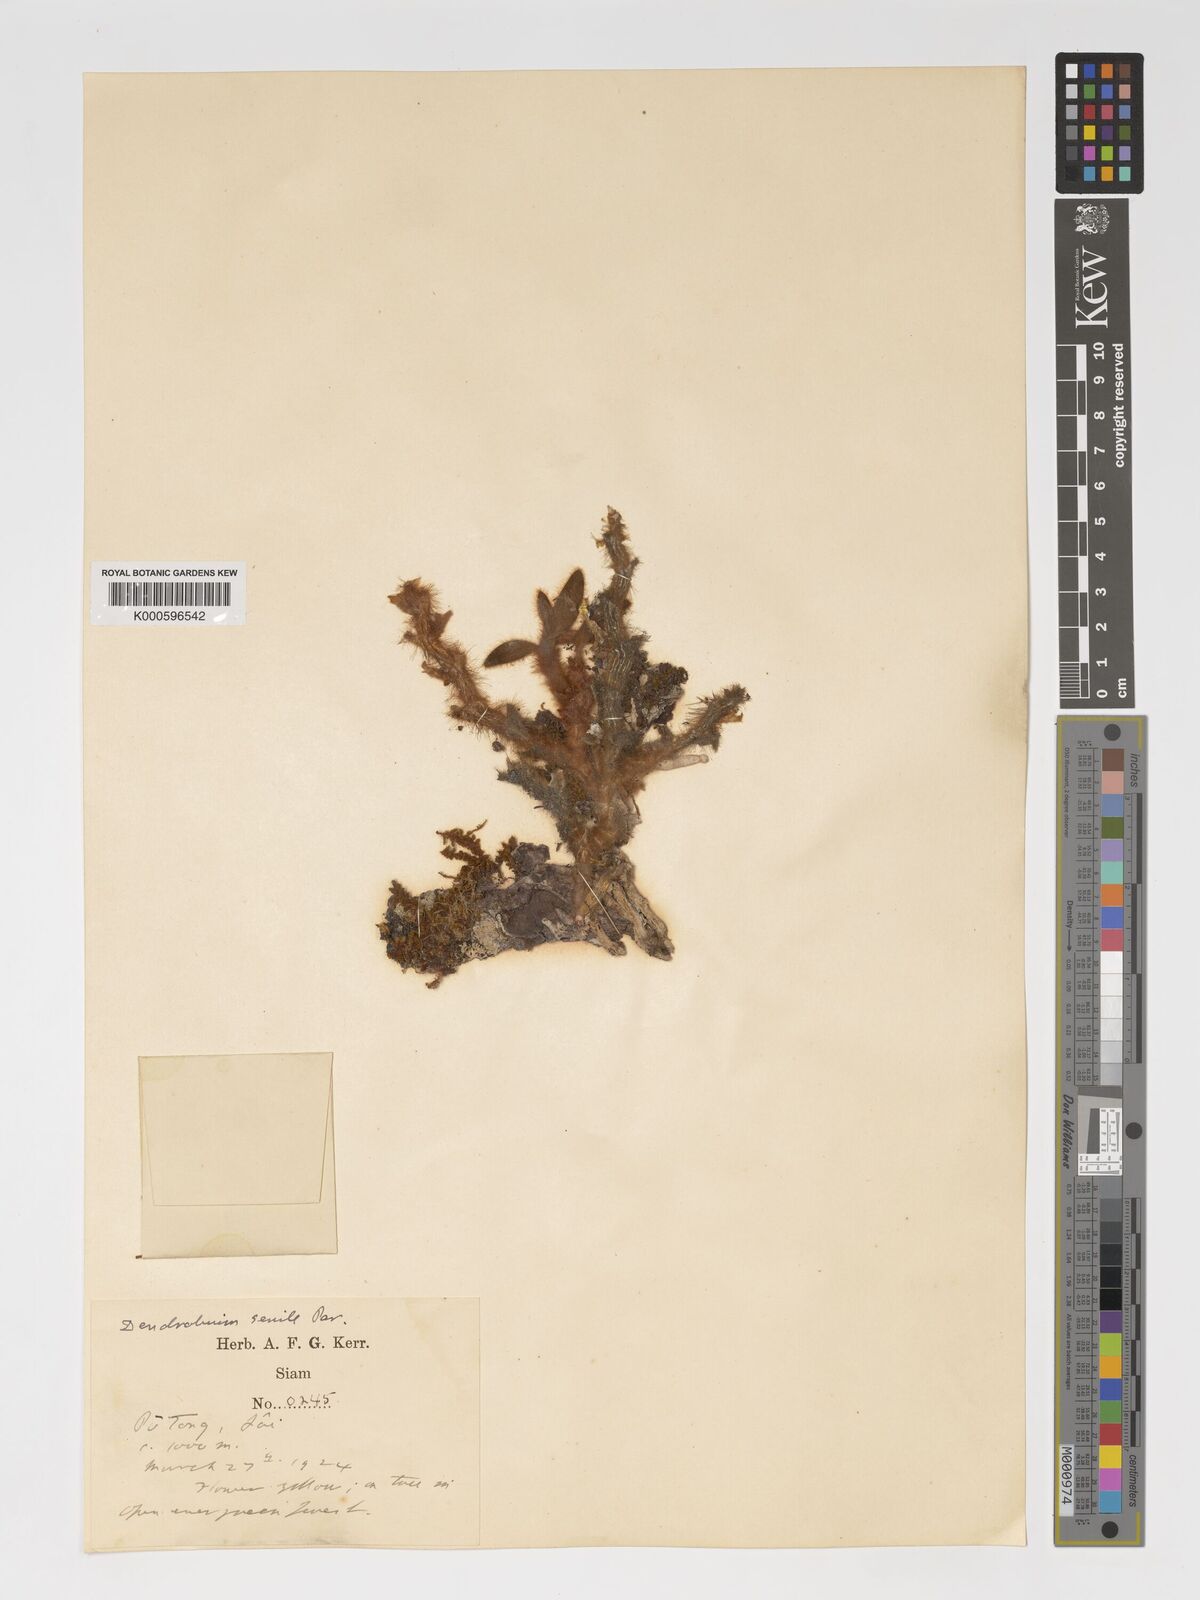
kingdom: Plantae
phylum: Tracheophyta
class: Liliopsida
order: Asparagales
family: Orchidaceae
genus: Dendrobium
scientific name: Dendrobium senile
